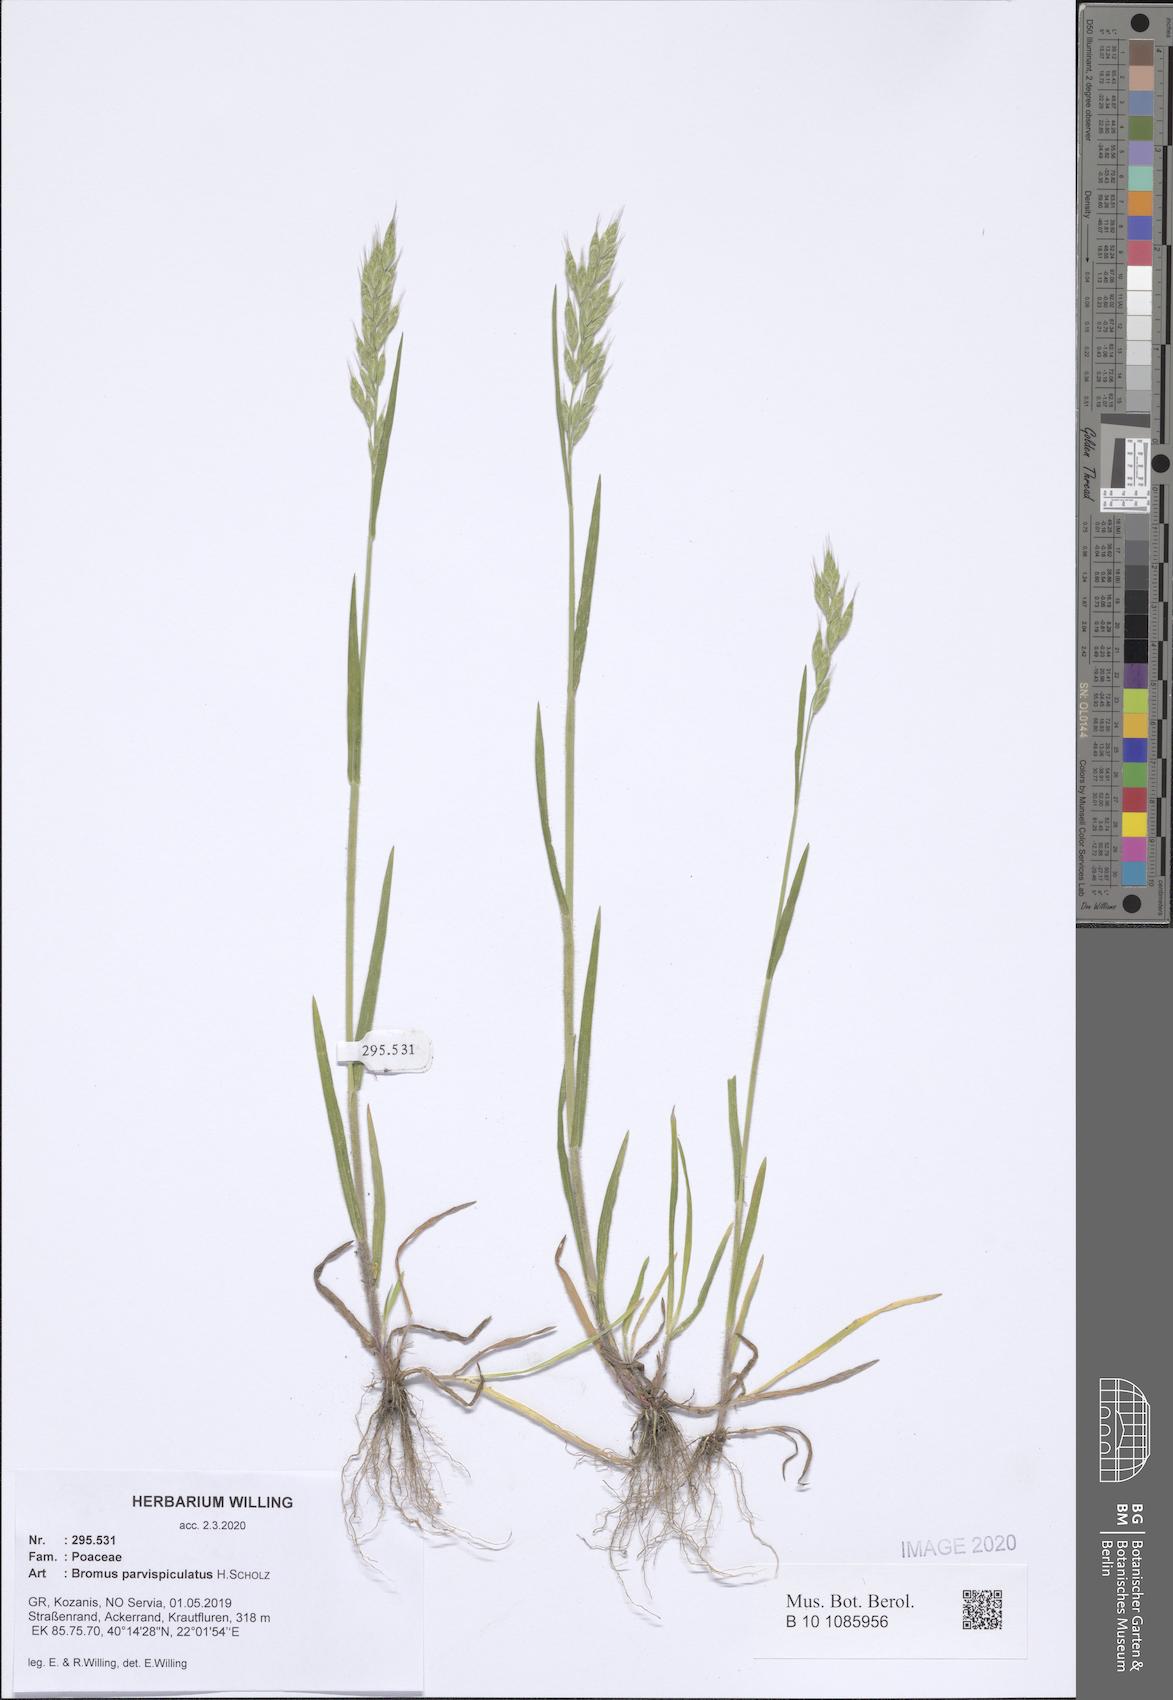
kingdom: Plantae
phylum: Tracheophyta
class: Liliopsida
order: Poales
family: Poaceae
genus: Bromus
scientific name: Bromus hordeaceus
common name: Soft brome
